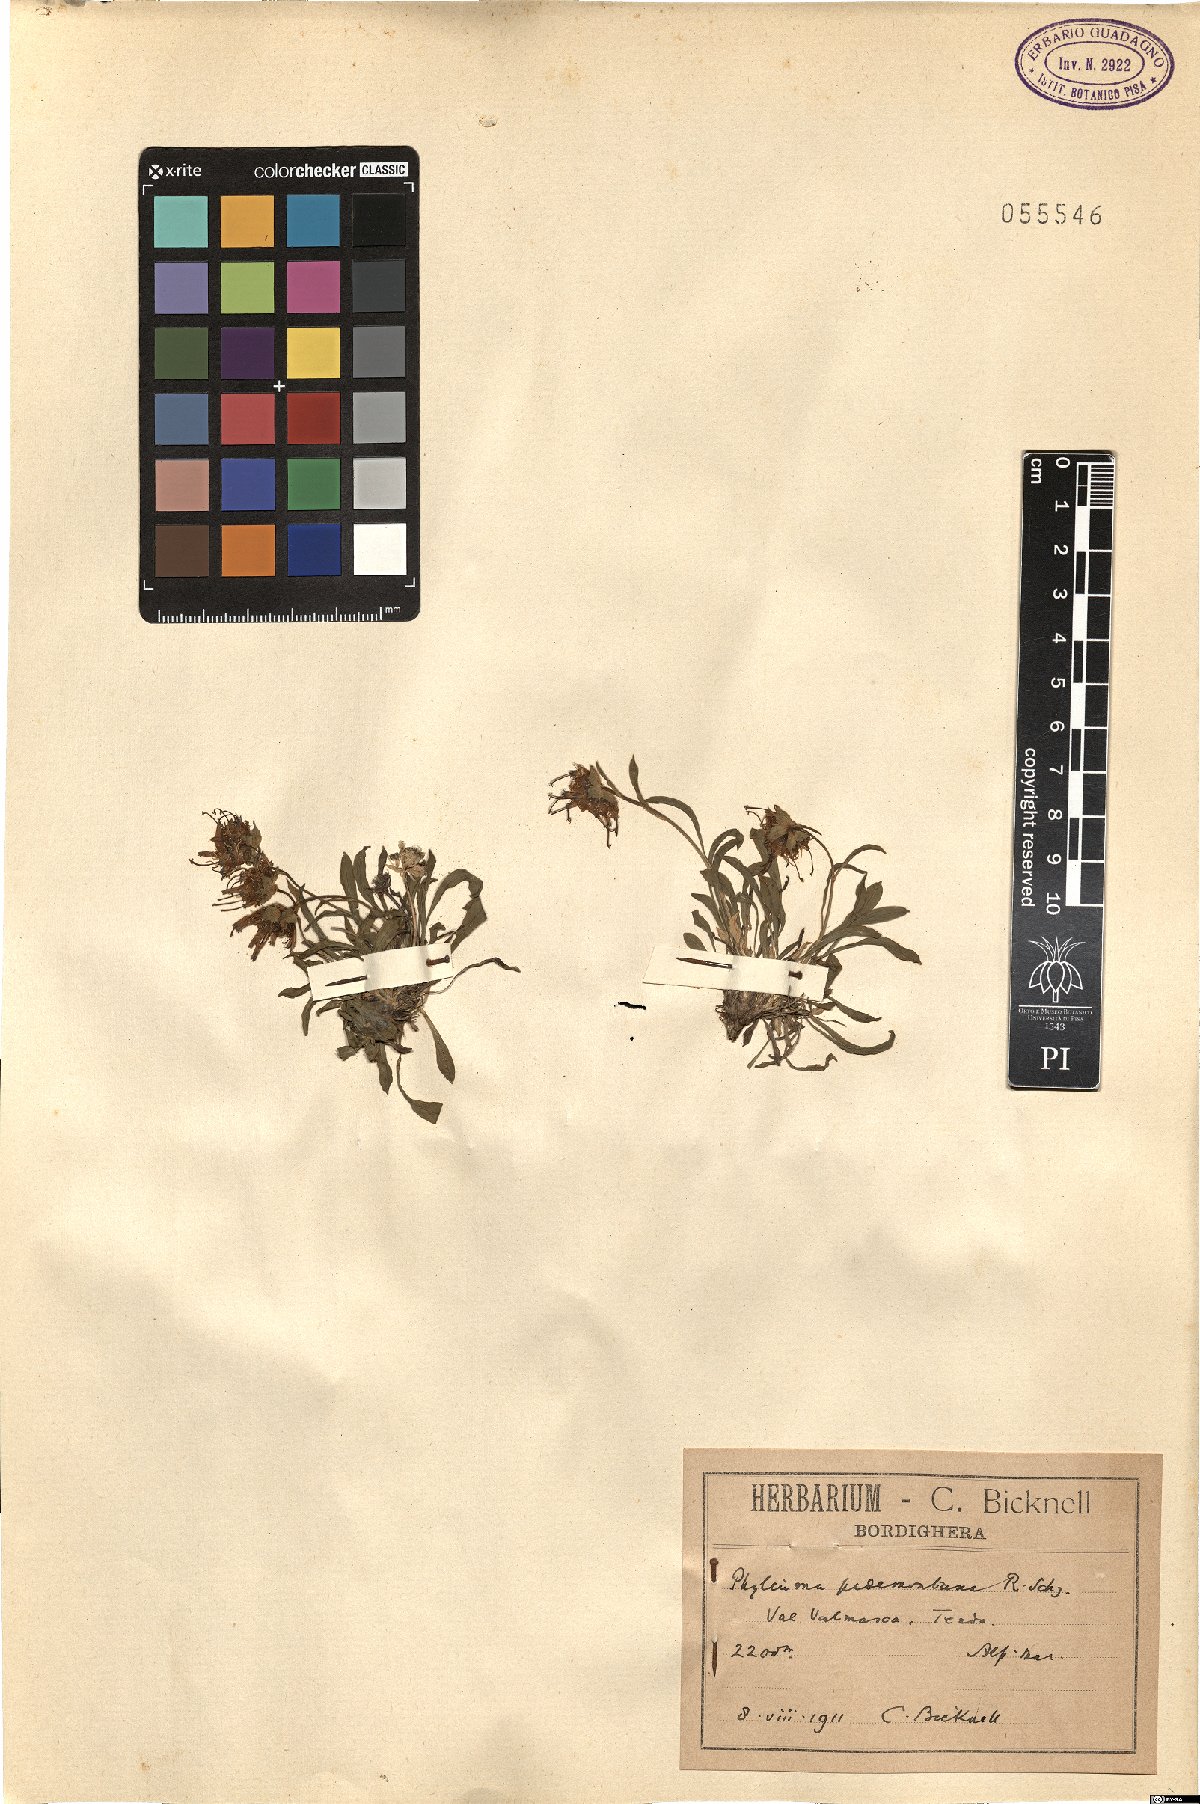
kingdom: Plantae
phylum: Tracheophyta
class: Magnoliopsida
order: Asterales
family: Campanulaceae
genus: Phyteuma
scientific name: Phyteuma globulariifolium
